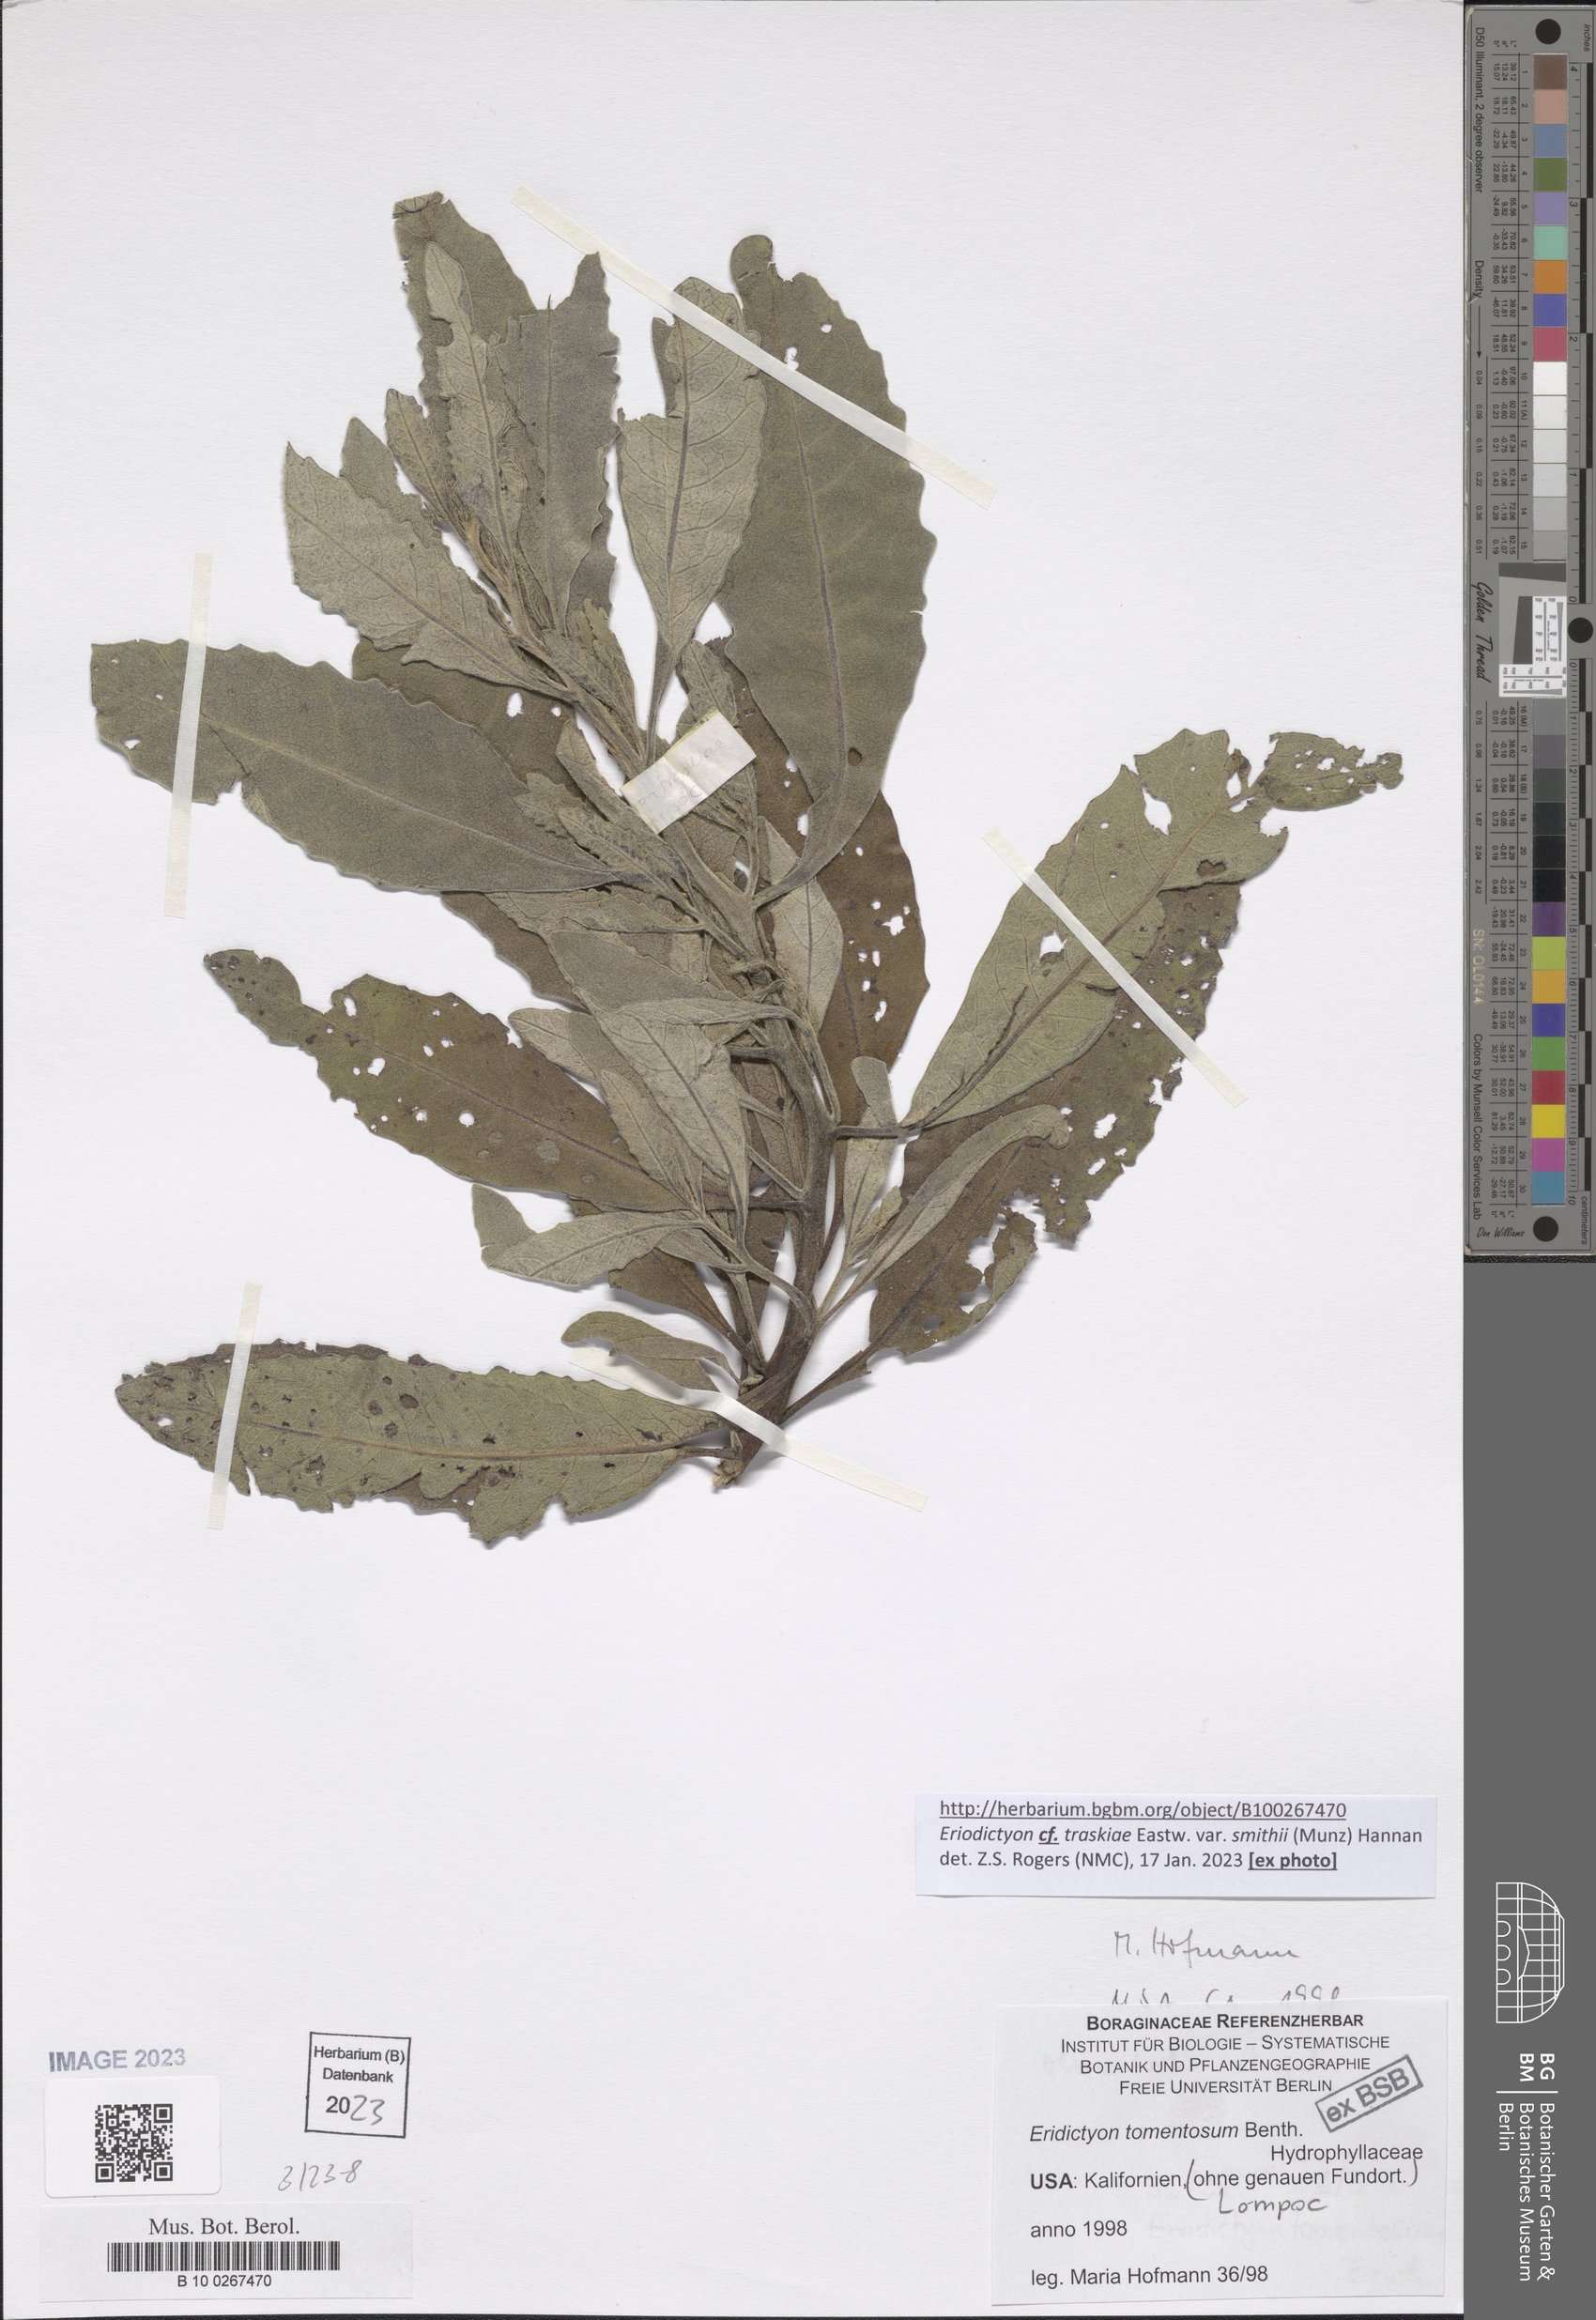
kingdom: Plantae
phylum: Tracheophyta
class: Magnoliopsida
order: Boraginales
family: Namaceae
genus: Eriodictyon
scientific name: Eriodictyon traskiae
